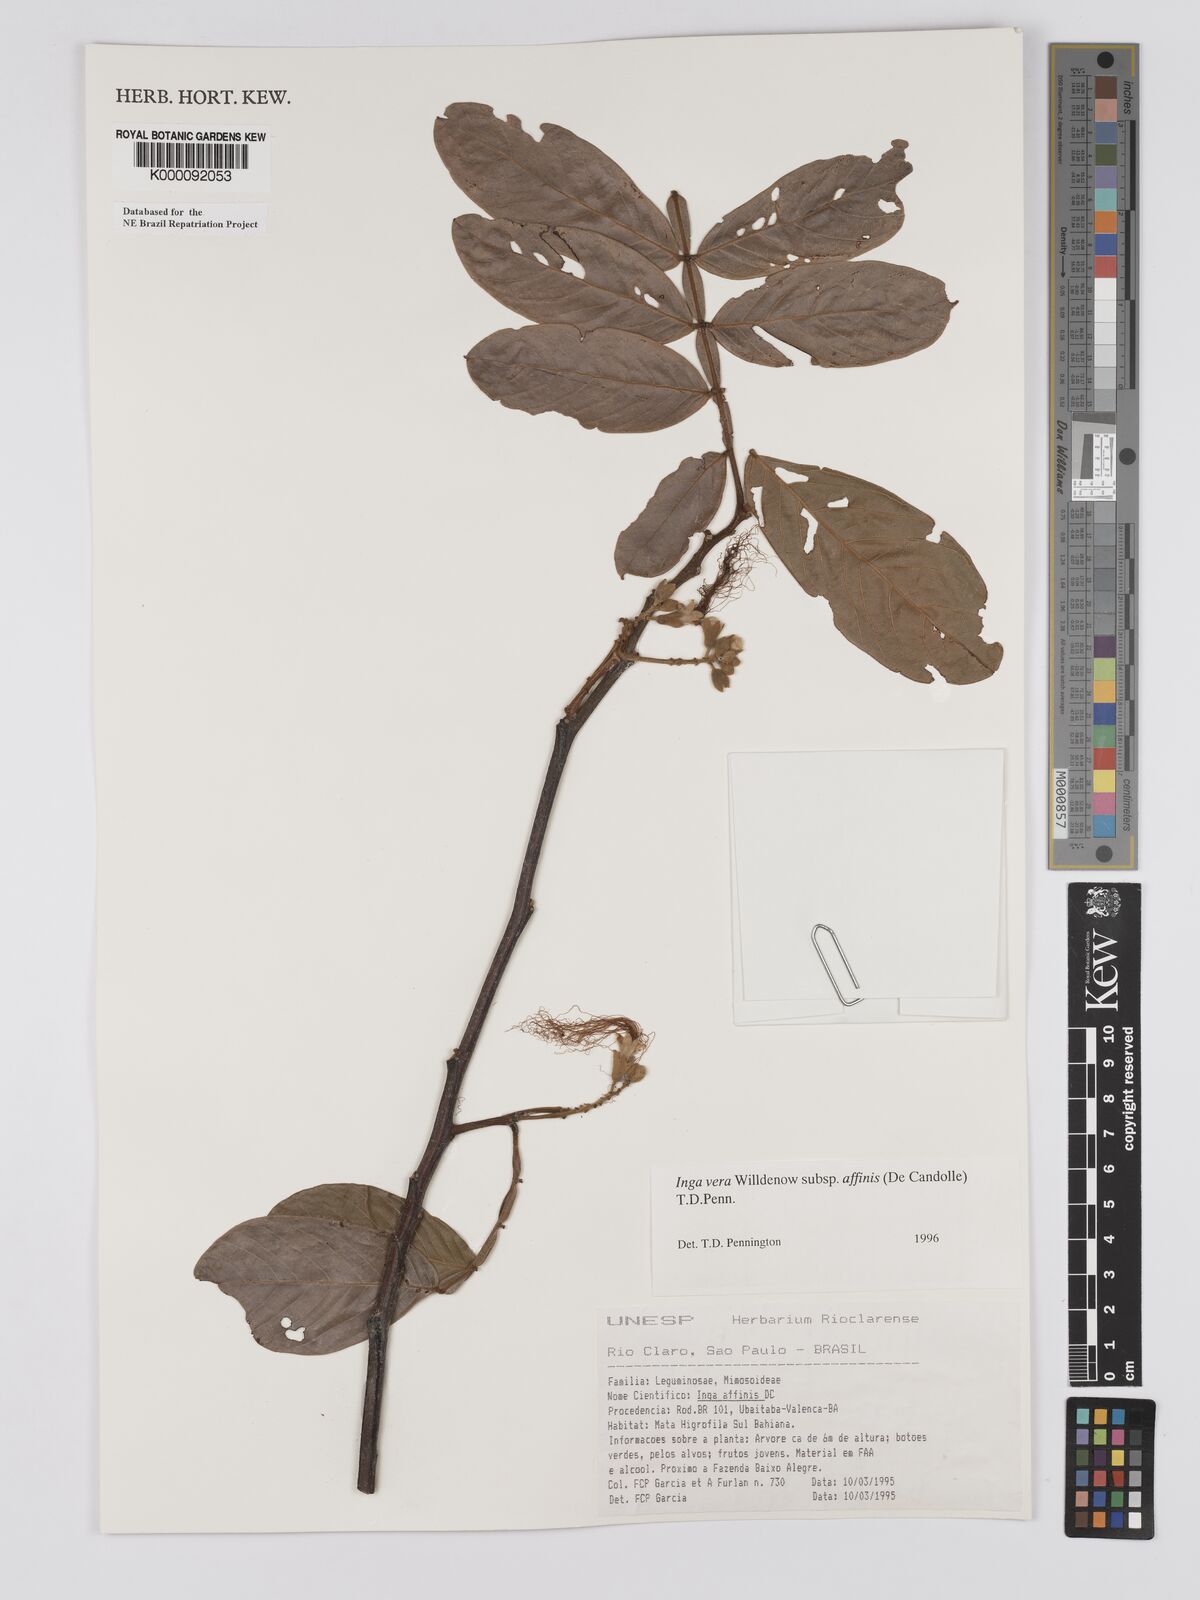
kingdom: Plantae
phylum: Tracheophyta
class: Magnoliopsida
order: Fabales
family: Fabaceae
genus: Inga
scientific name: Inga affinis
